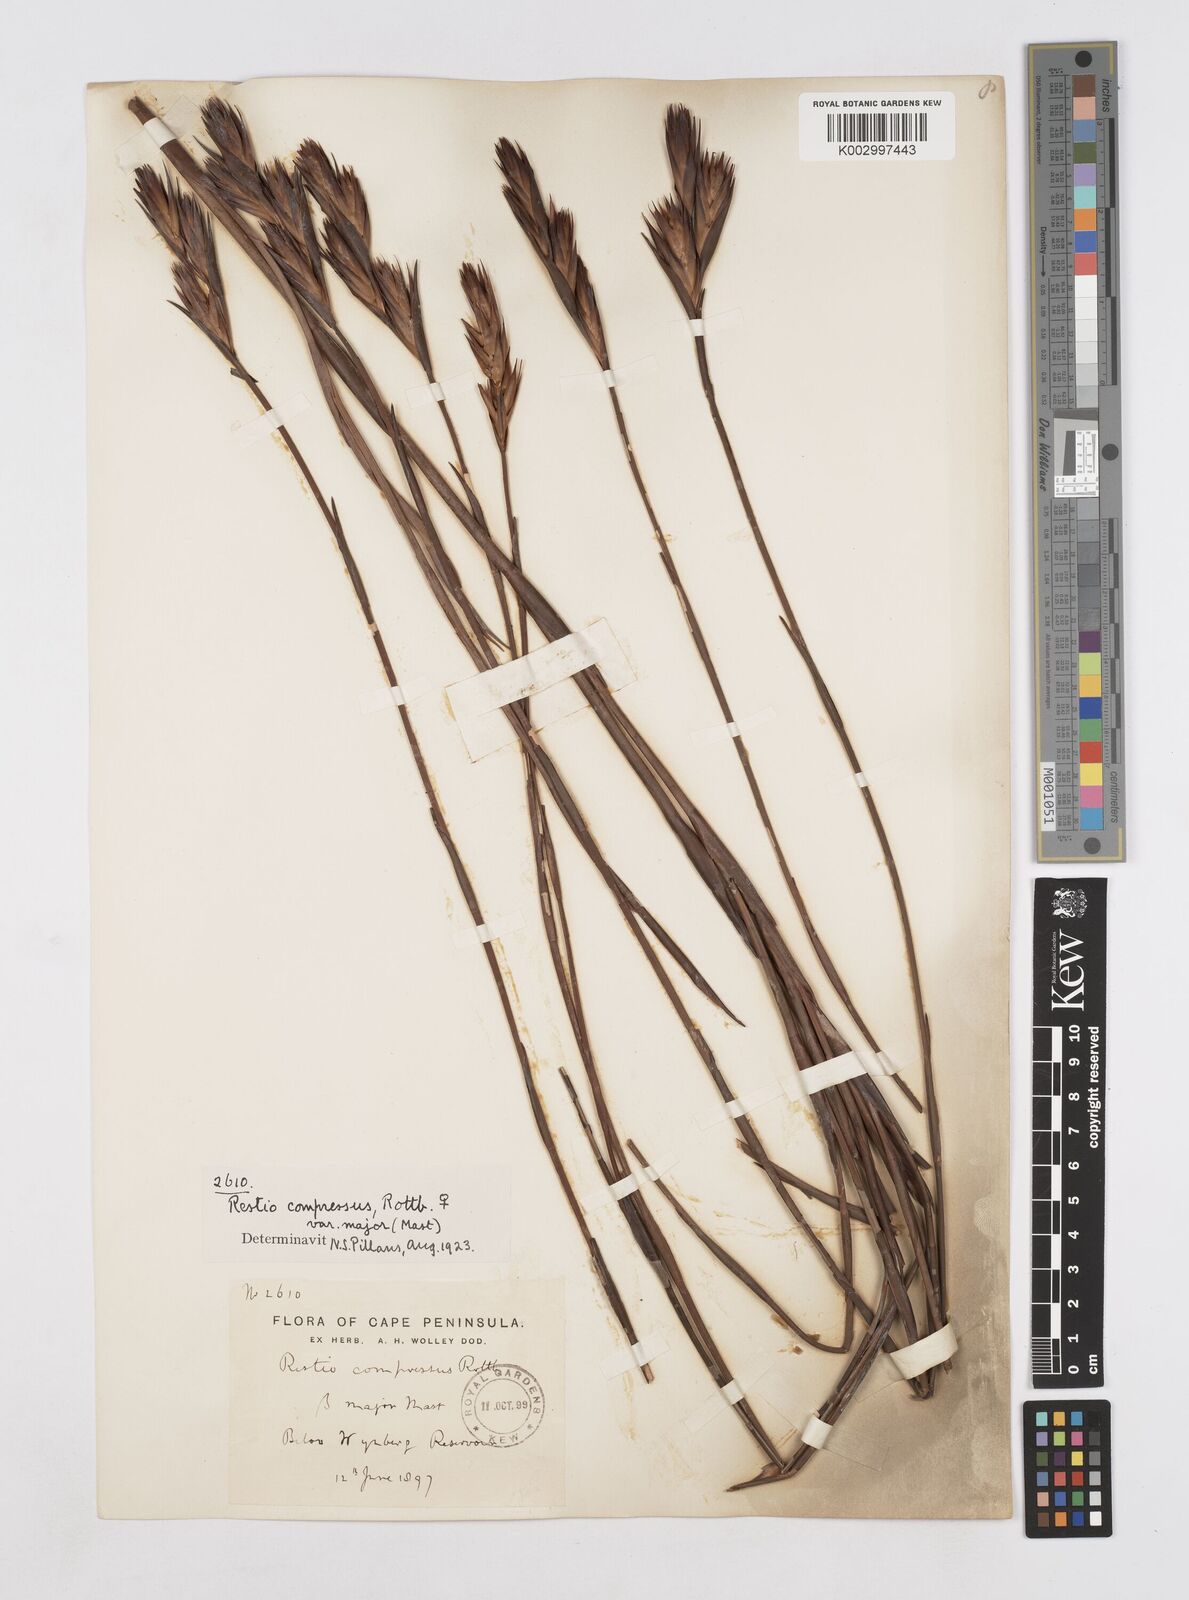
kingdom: Plantae
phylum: Tracheophyta
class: Liliopsida
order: Poales
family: Restionaceae
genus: Platycaulos
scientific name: Platycaulos major
